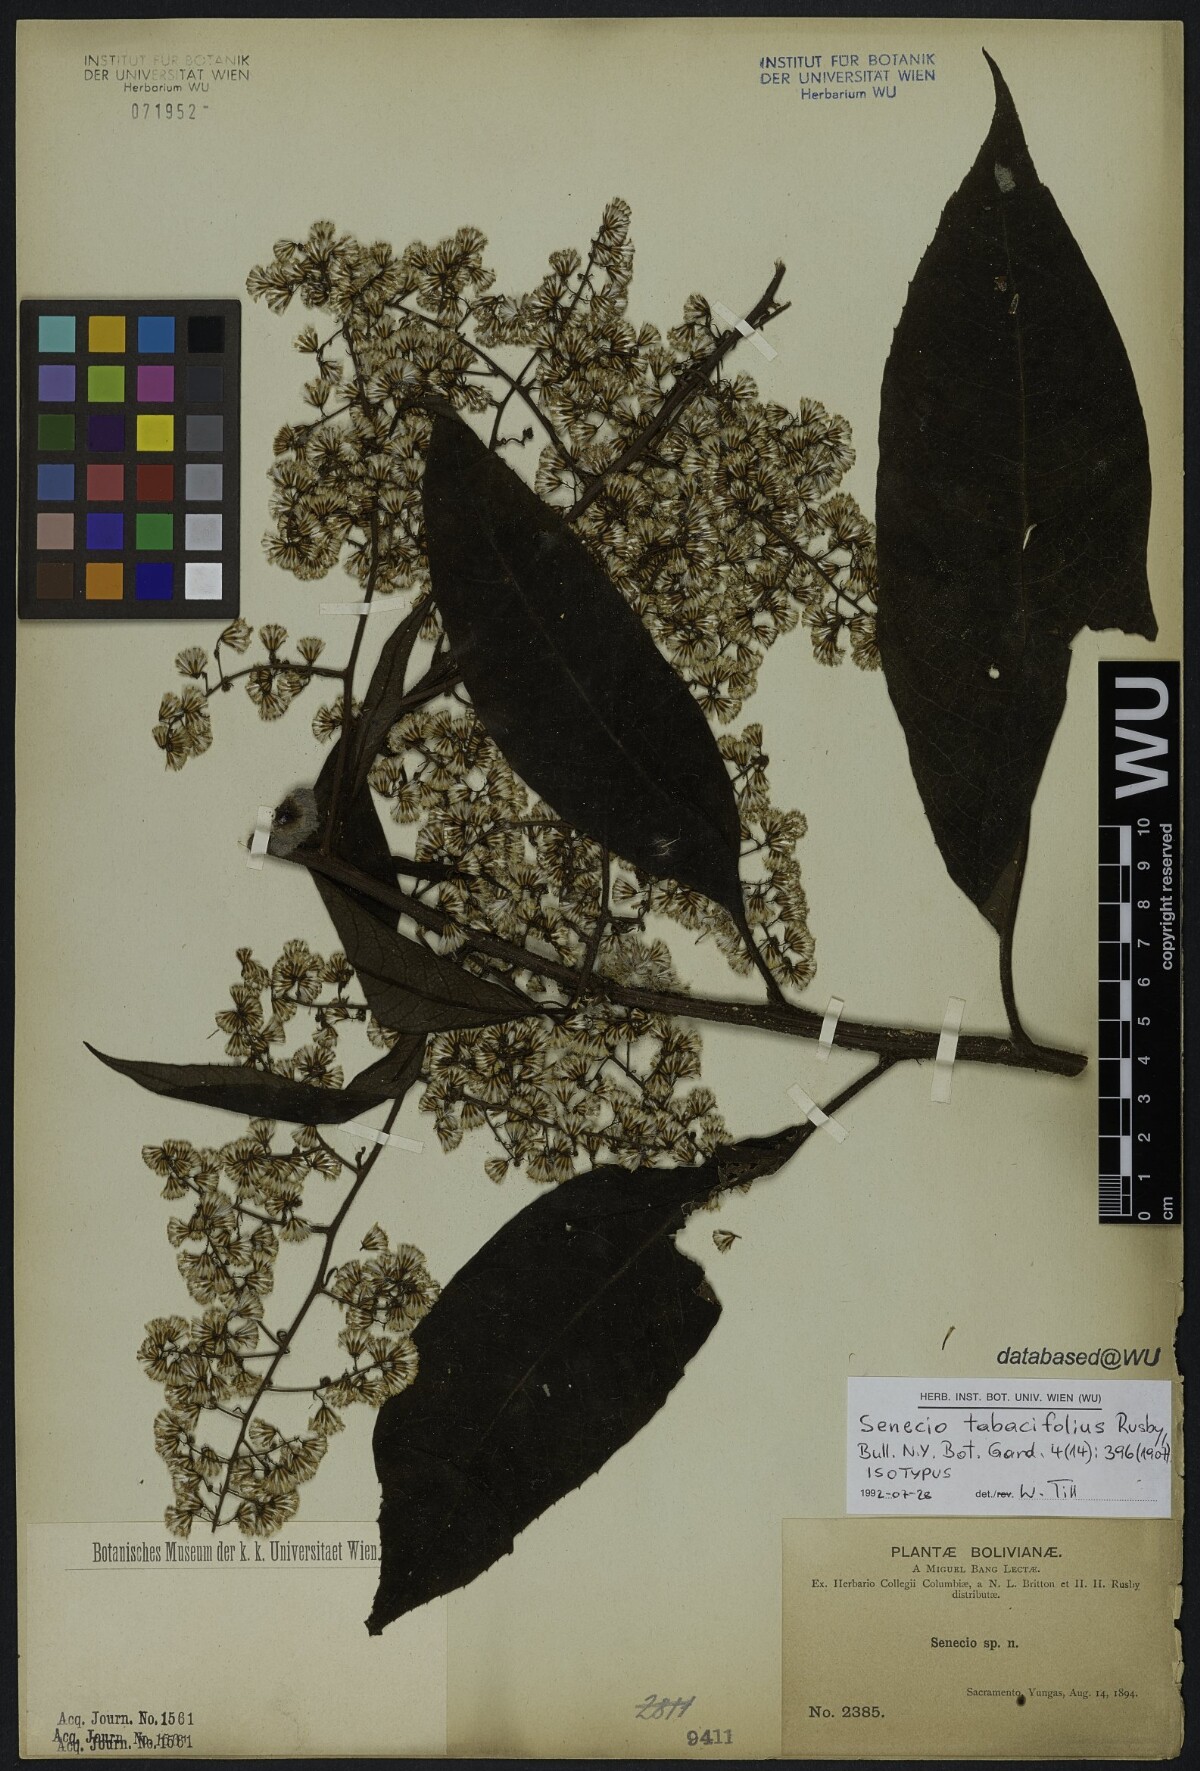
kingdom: Plantae
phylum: Tracheophyta
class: Magnoliopsida
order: Asterales
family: Asteraceae
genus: Dendrophorbium
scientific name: Dendrophorbium tabacifolium
